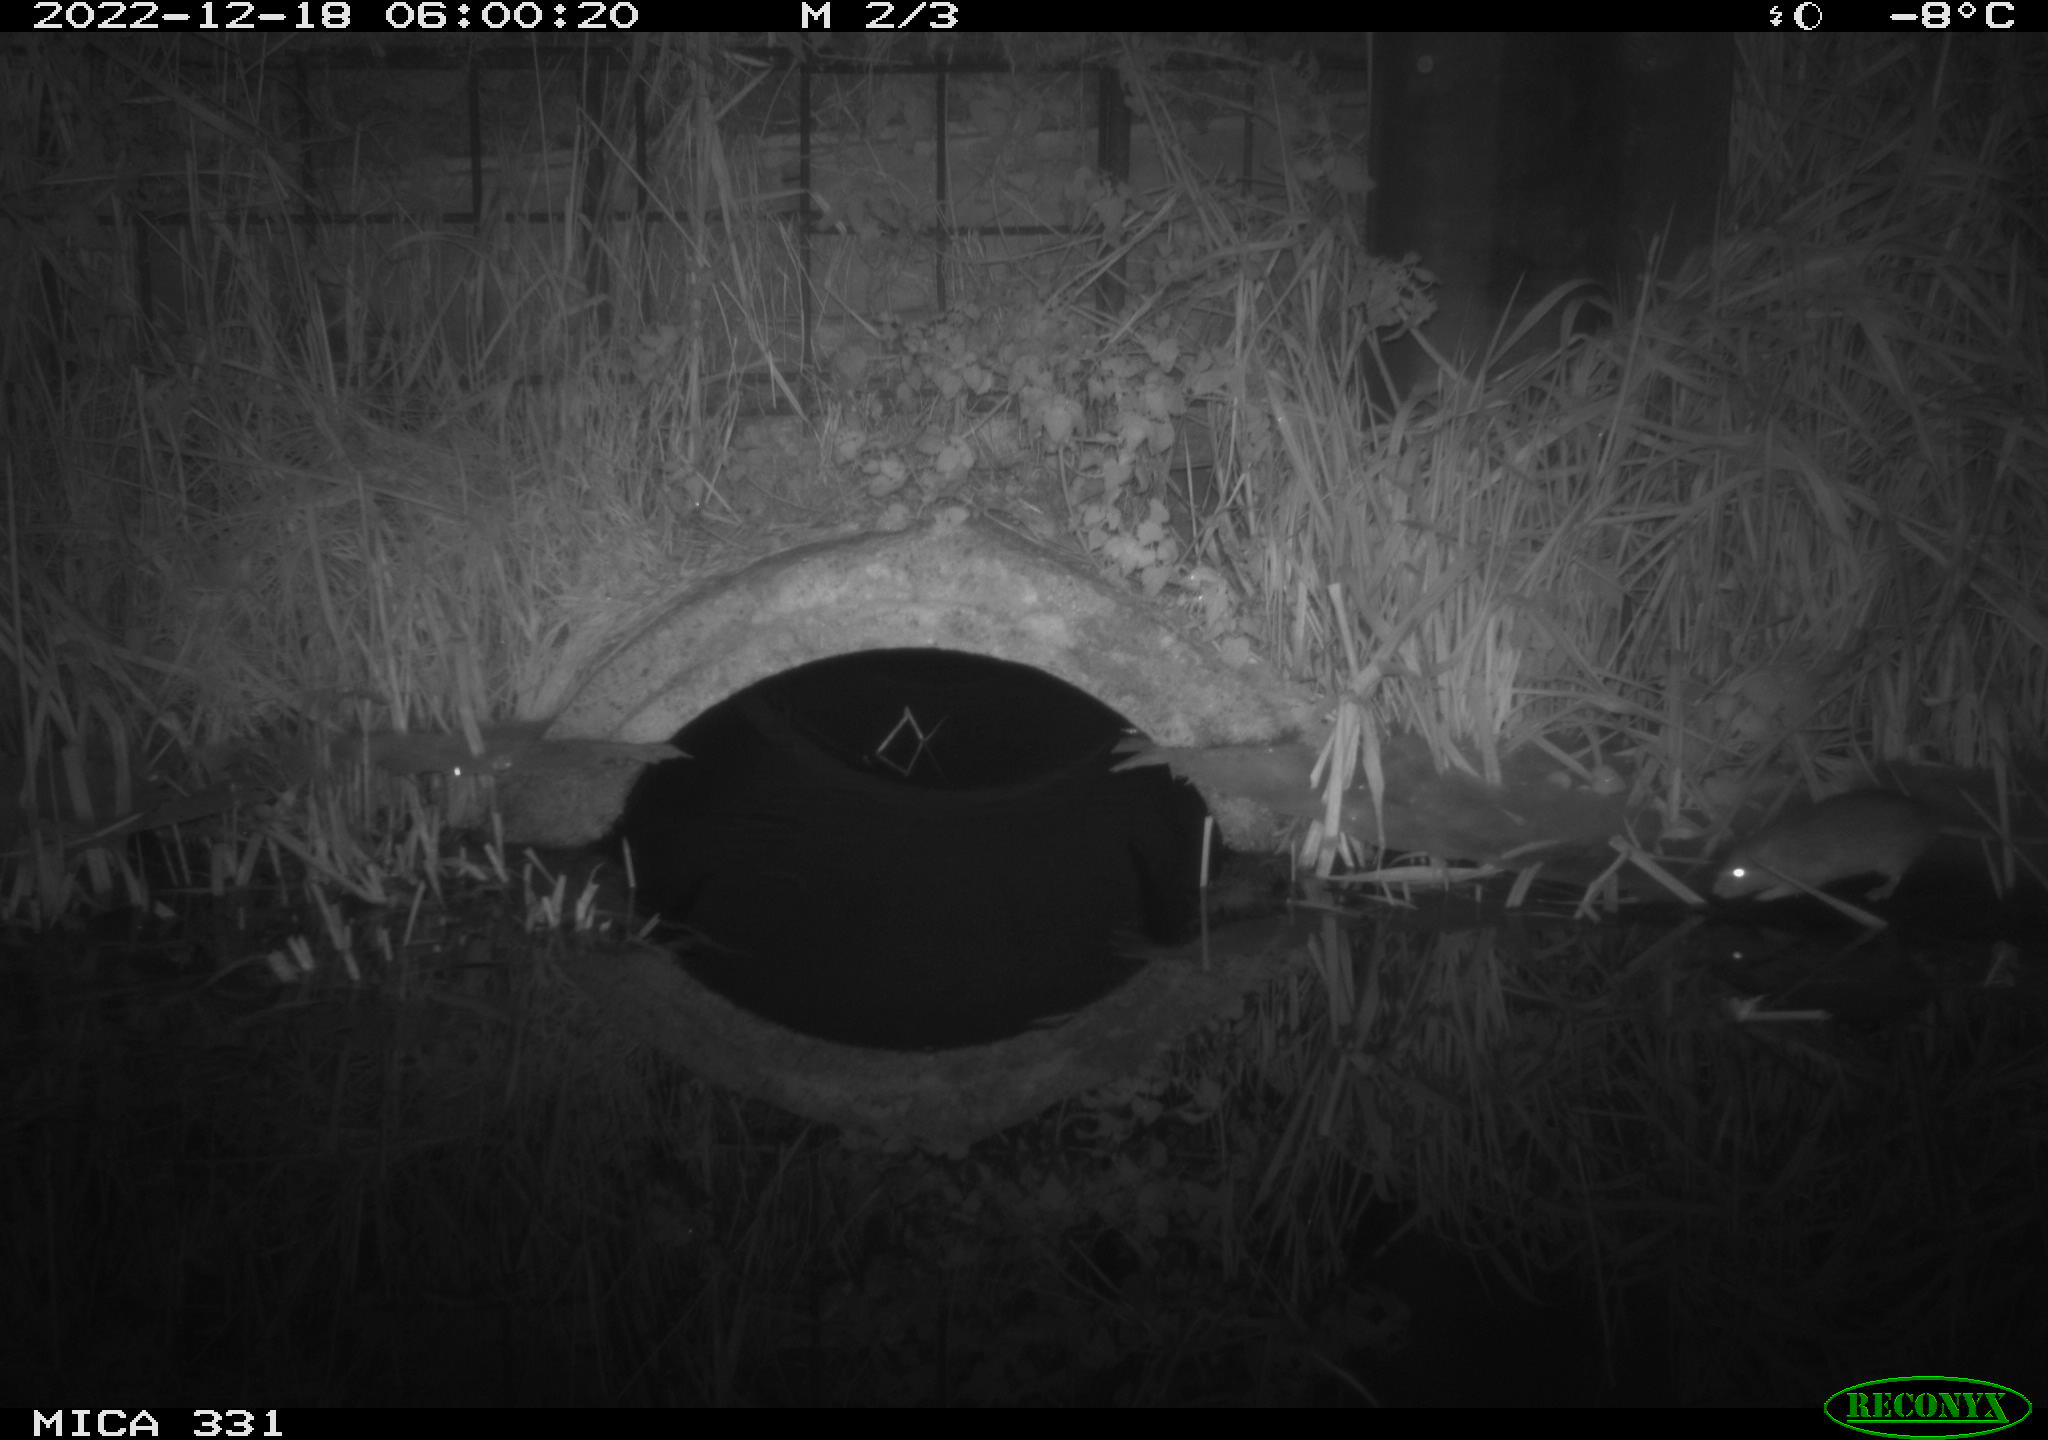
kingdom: Animalia
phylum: Chordata
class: Mammalia
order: Rodentia
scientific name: Rodentia
